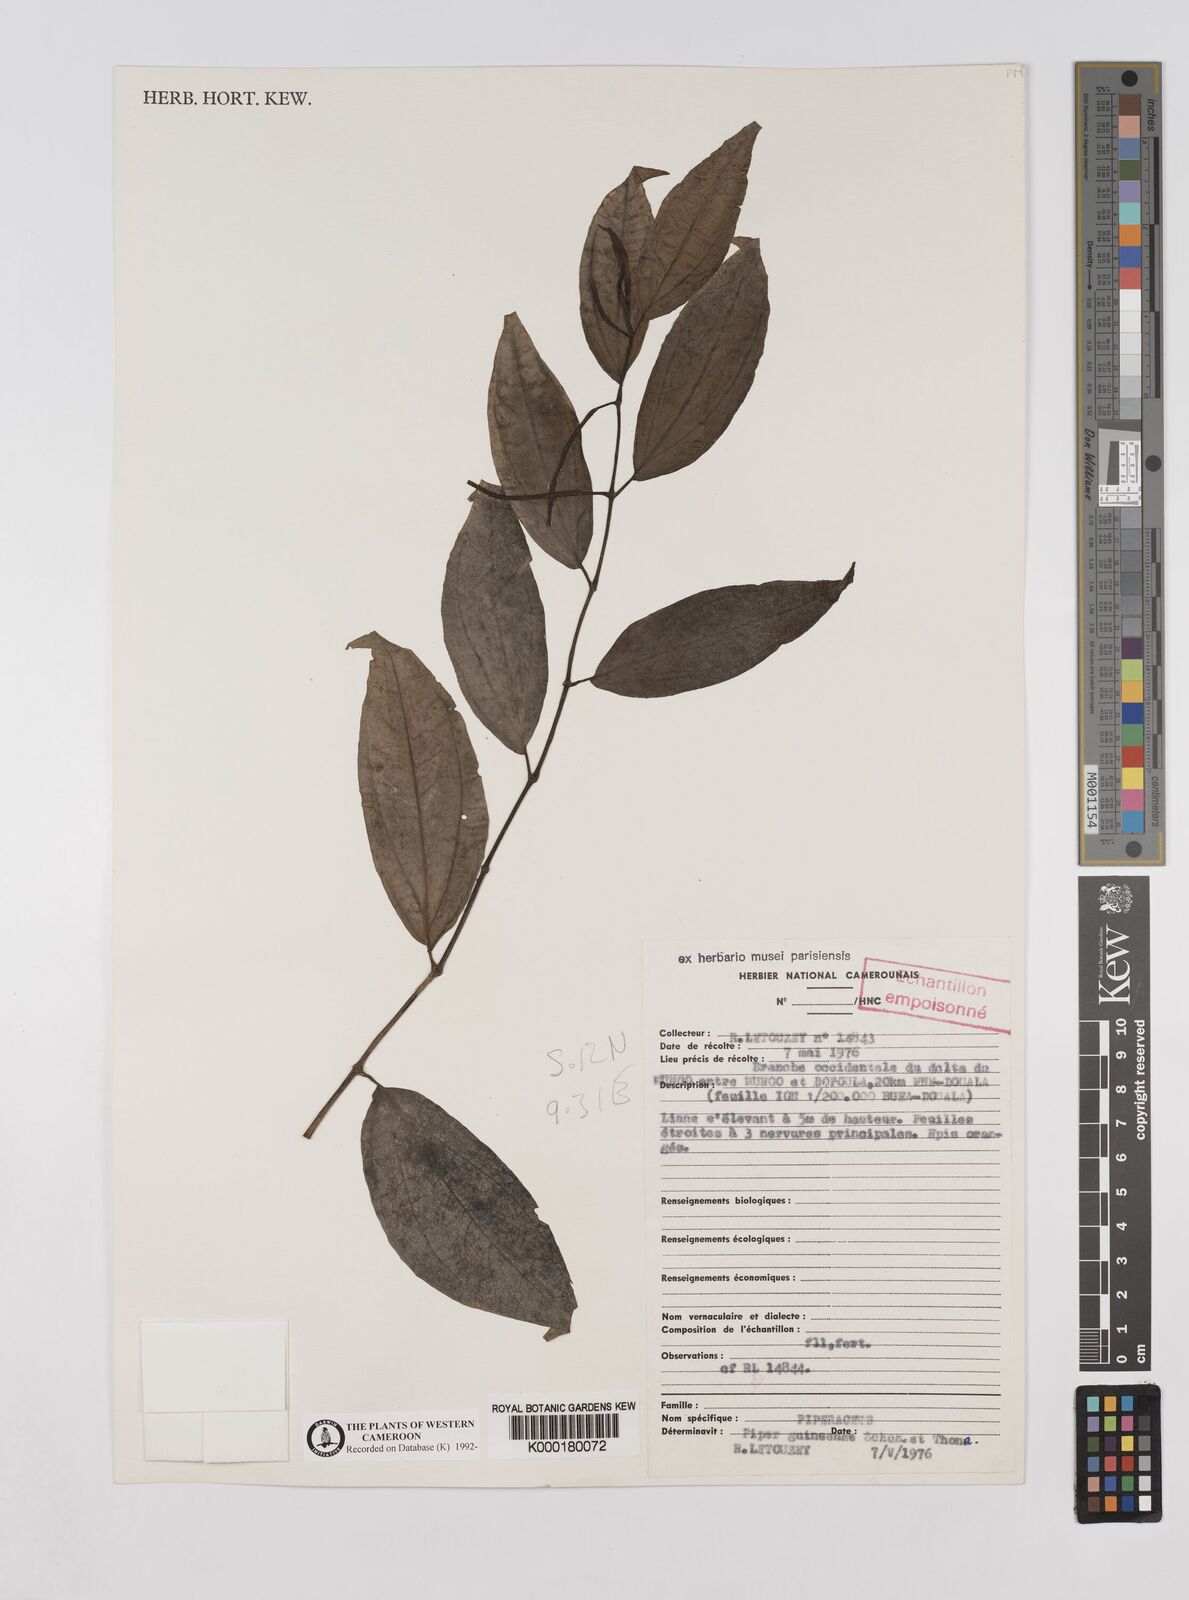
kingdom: Plantae
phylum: Tracheophyta
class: Magnoliopsida
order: Piperales
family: Piperaceae
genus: Piper
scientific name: Piper guineense
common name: Benin pepper
